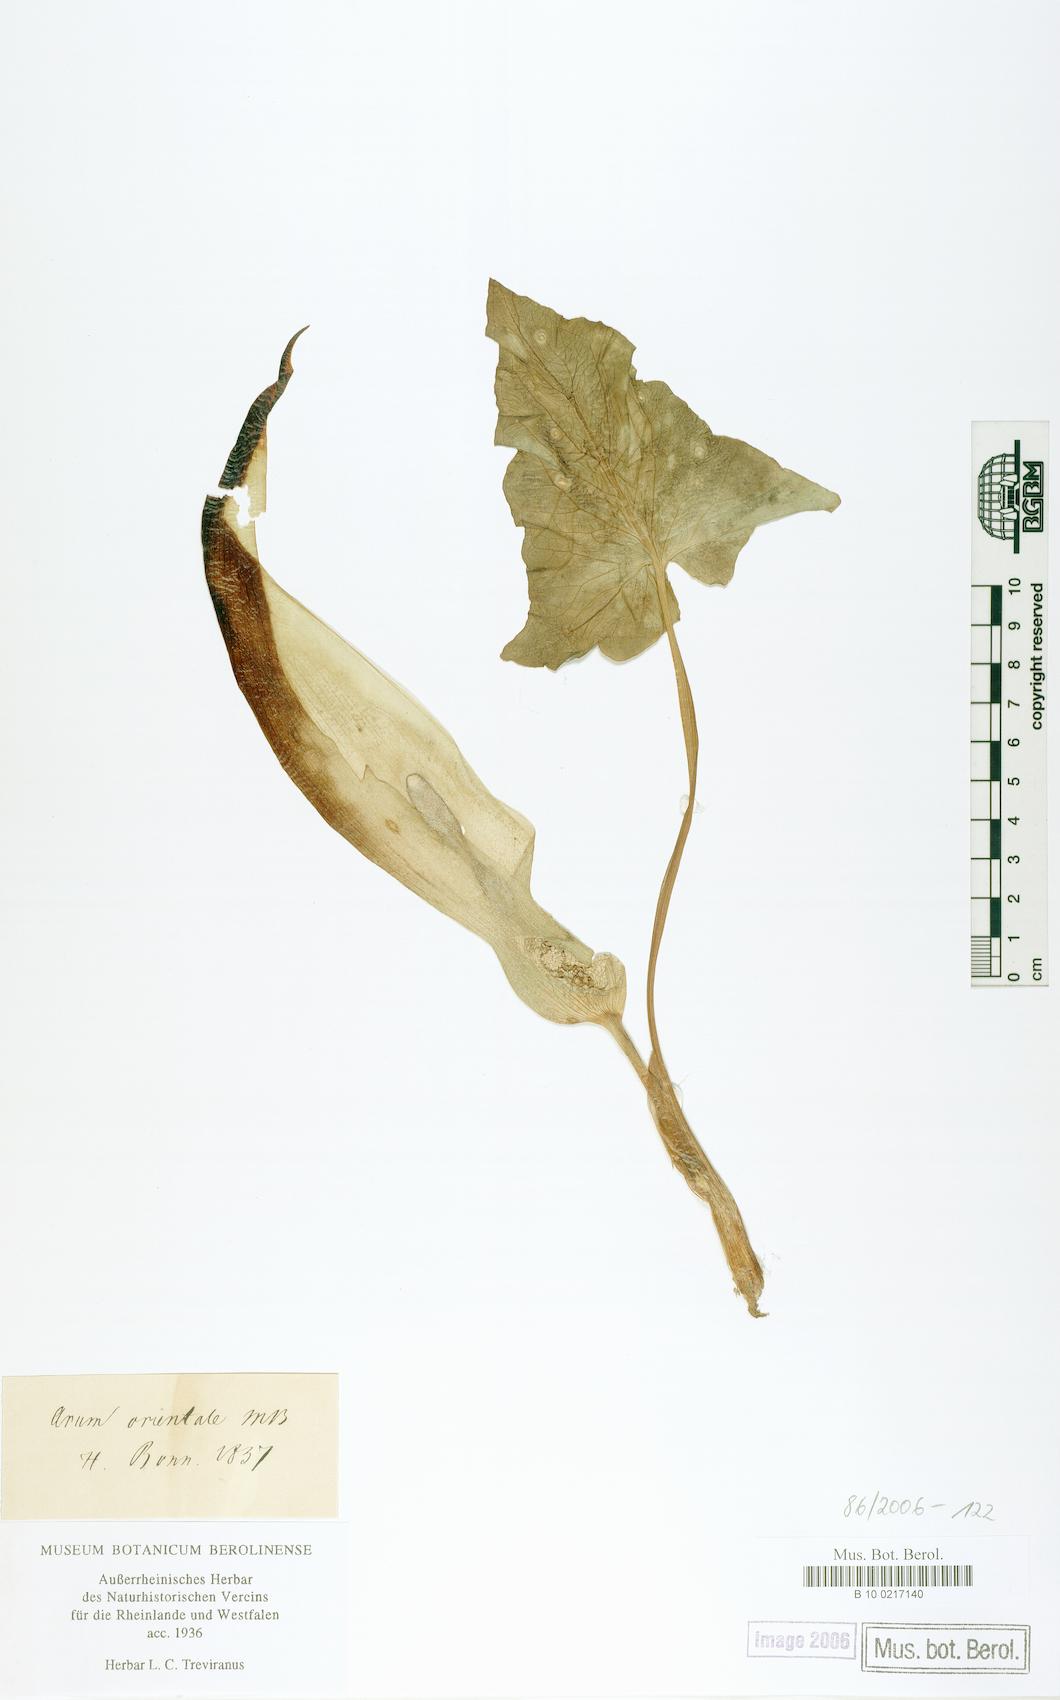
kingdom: Plantae
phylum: Tracheophyta
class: Liliopsida
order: Alismatales
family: Araceae
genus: Arum
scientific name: Arum orientale
